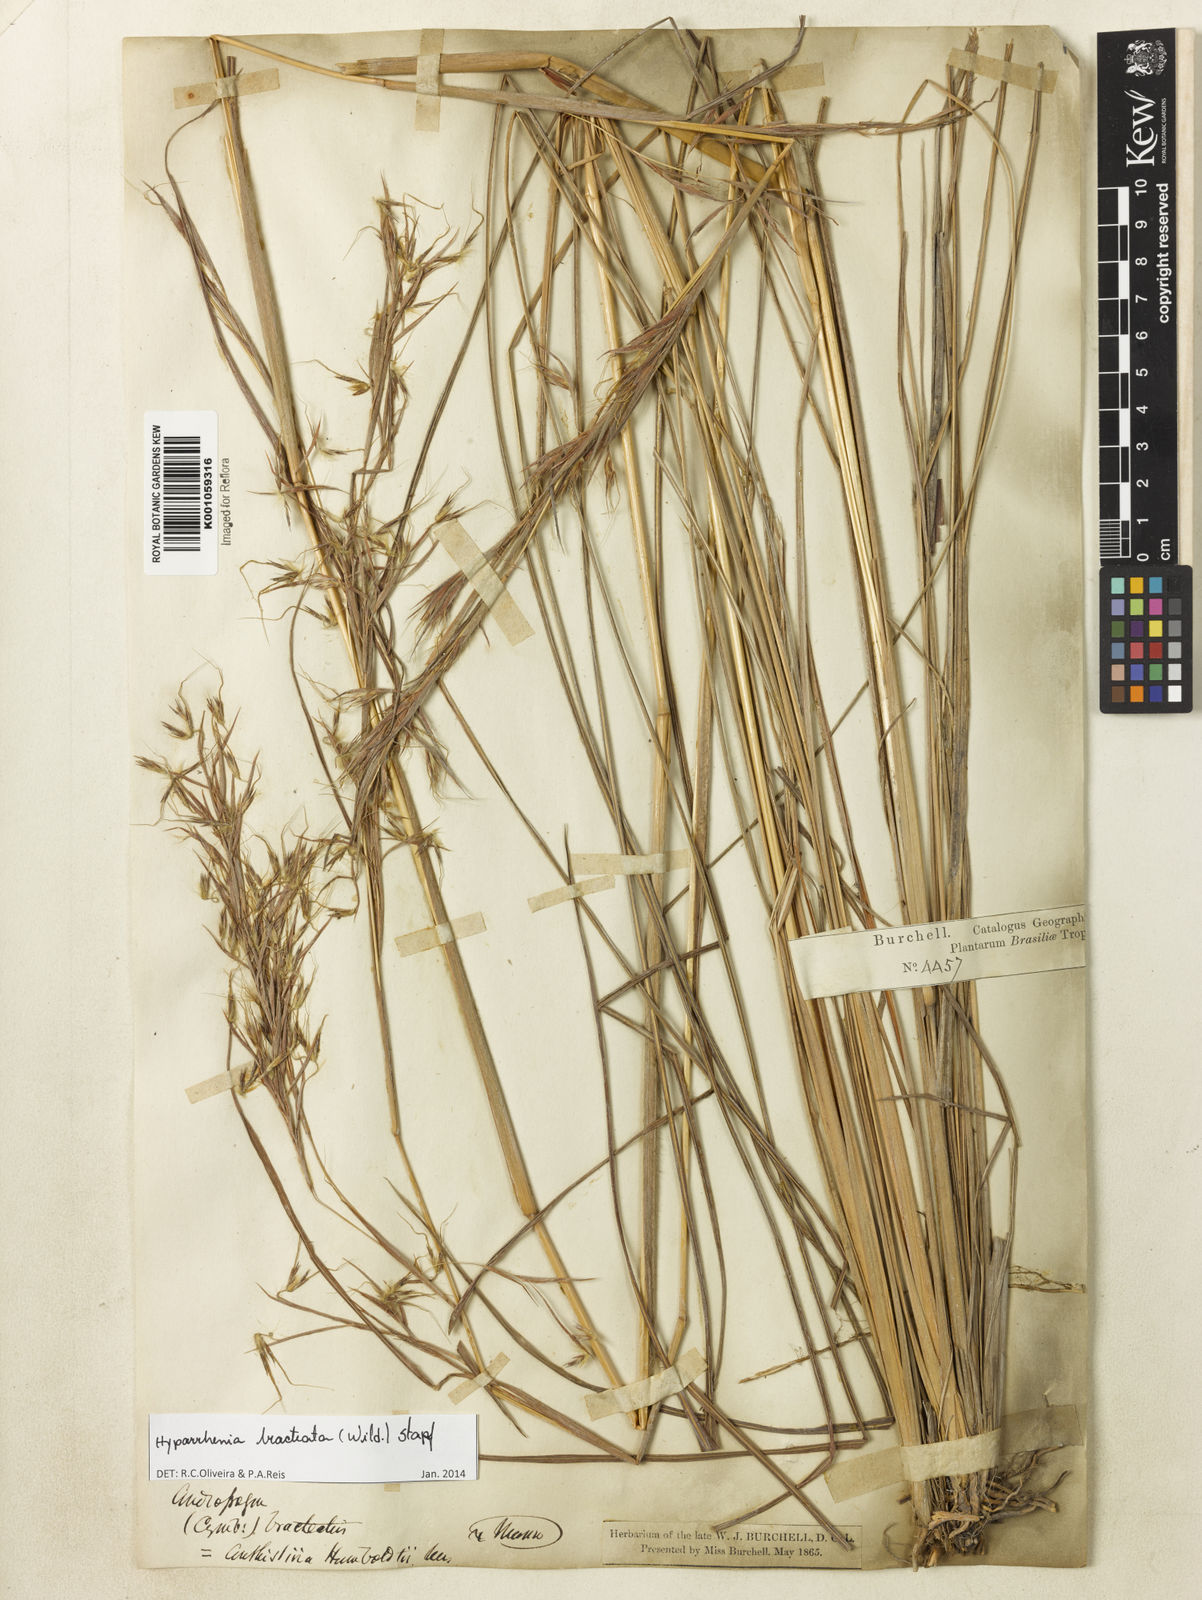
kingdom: Plantae
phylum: Tracheophyta
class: Liliopsida
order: Poales
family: Poaceae
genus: Hyparrhenia
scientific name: Hyparrhenia bracteata
